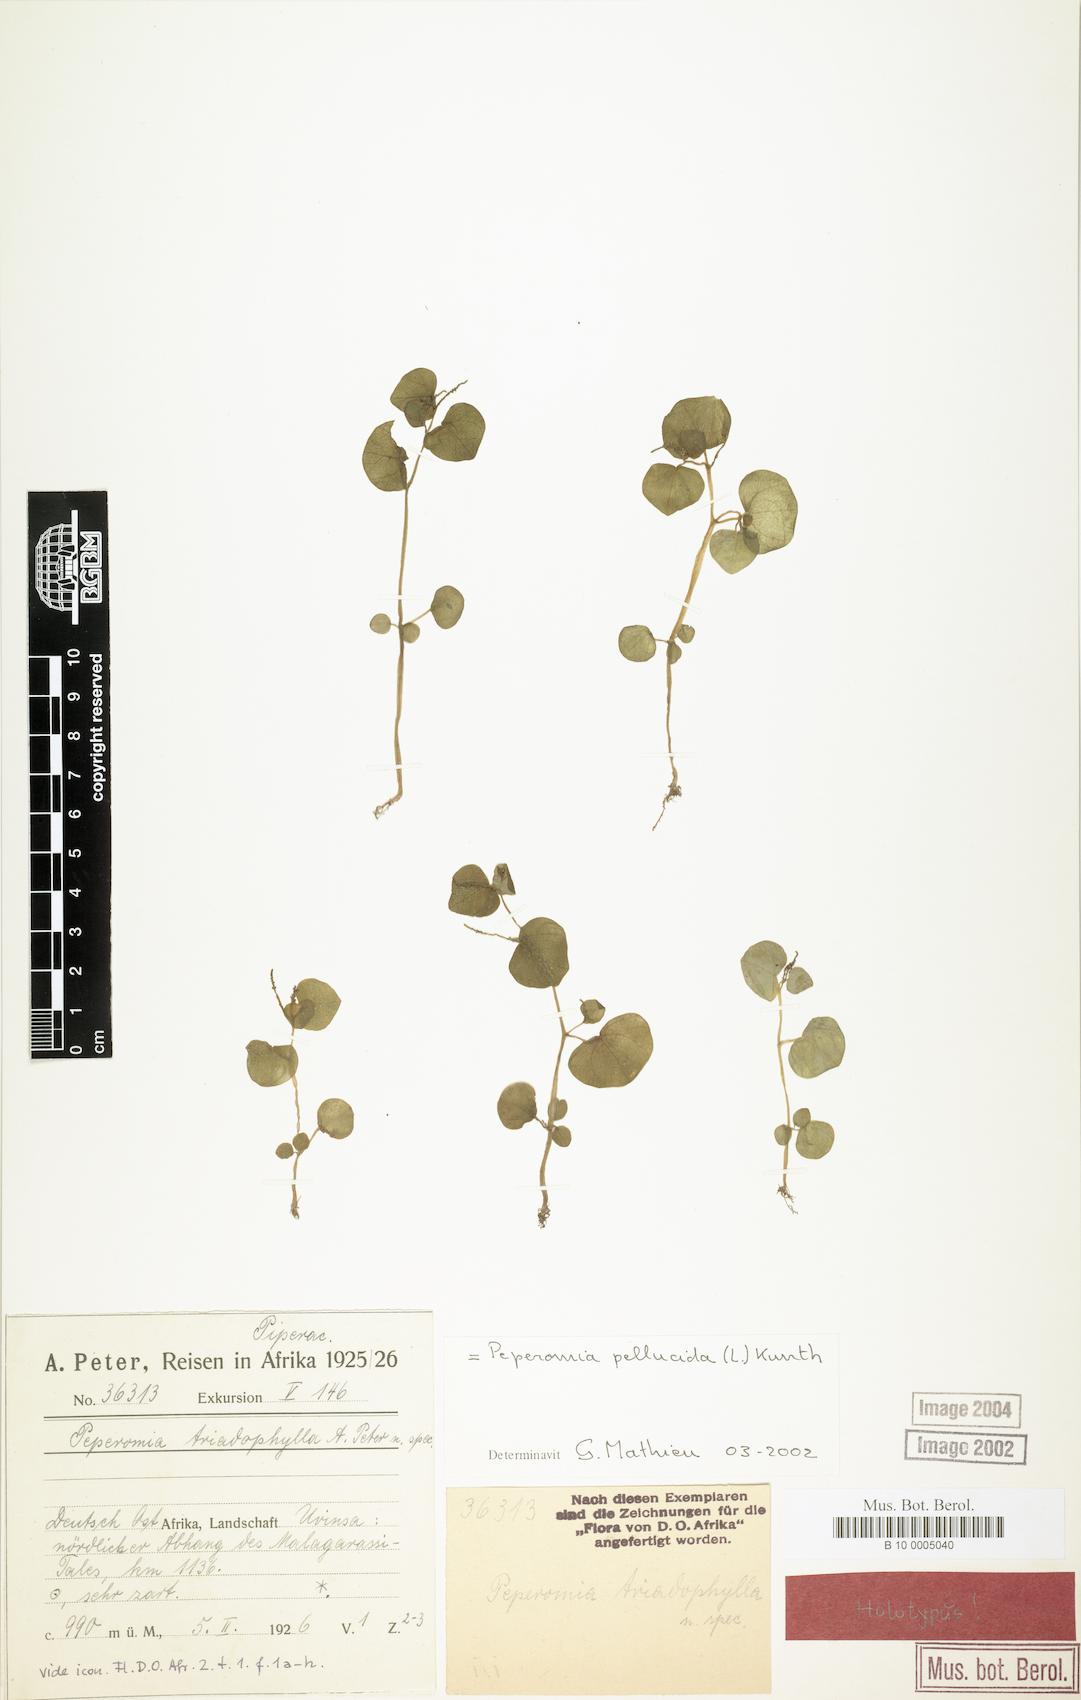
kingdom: Plantae
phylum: Tracheophyta
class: Magnoliopsida
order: Piperales
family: Piperaceae
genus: Peperomia
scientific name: Peperomia pellucida
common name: Man to man
